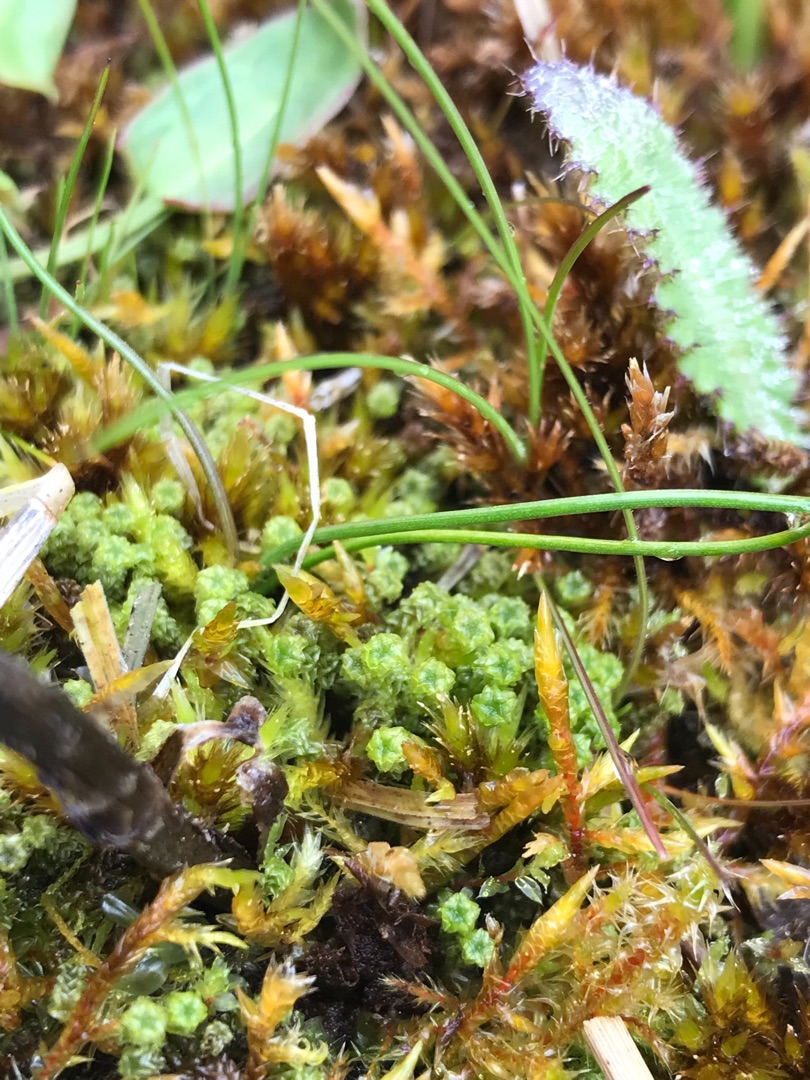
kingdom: Plantae
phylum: Bryophyta
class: Bryopsida
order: Splachnales
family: Meesiaceae
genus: Paludella
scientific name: Paludella squarrosa
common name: Almindelig piberensermos
